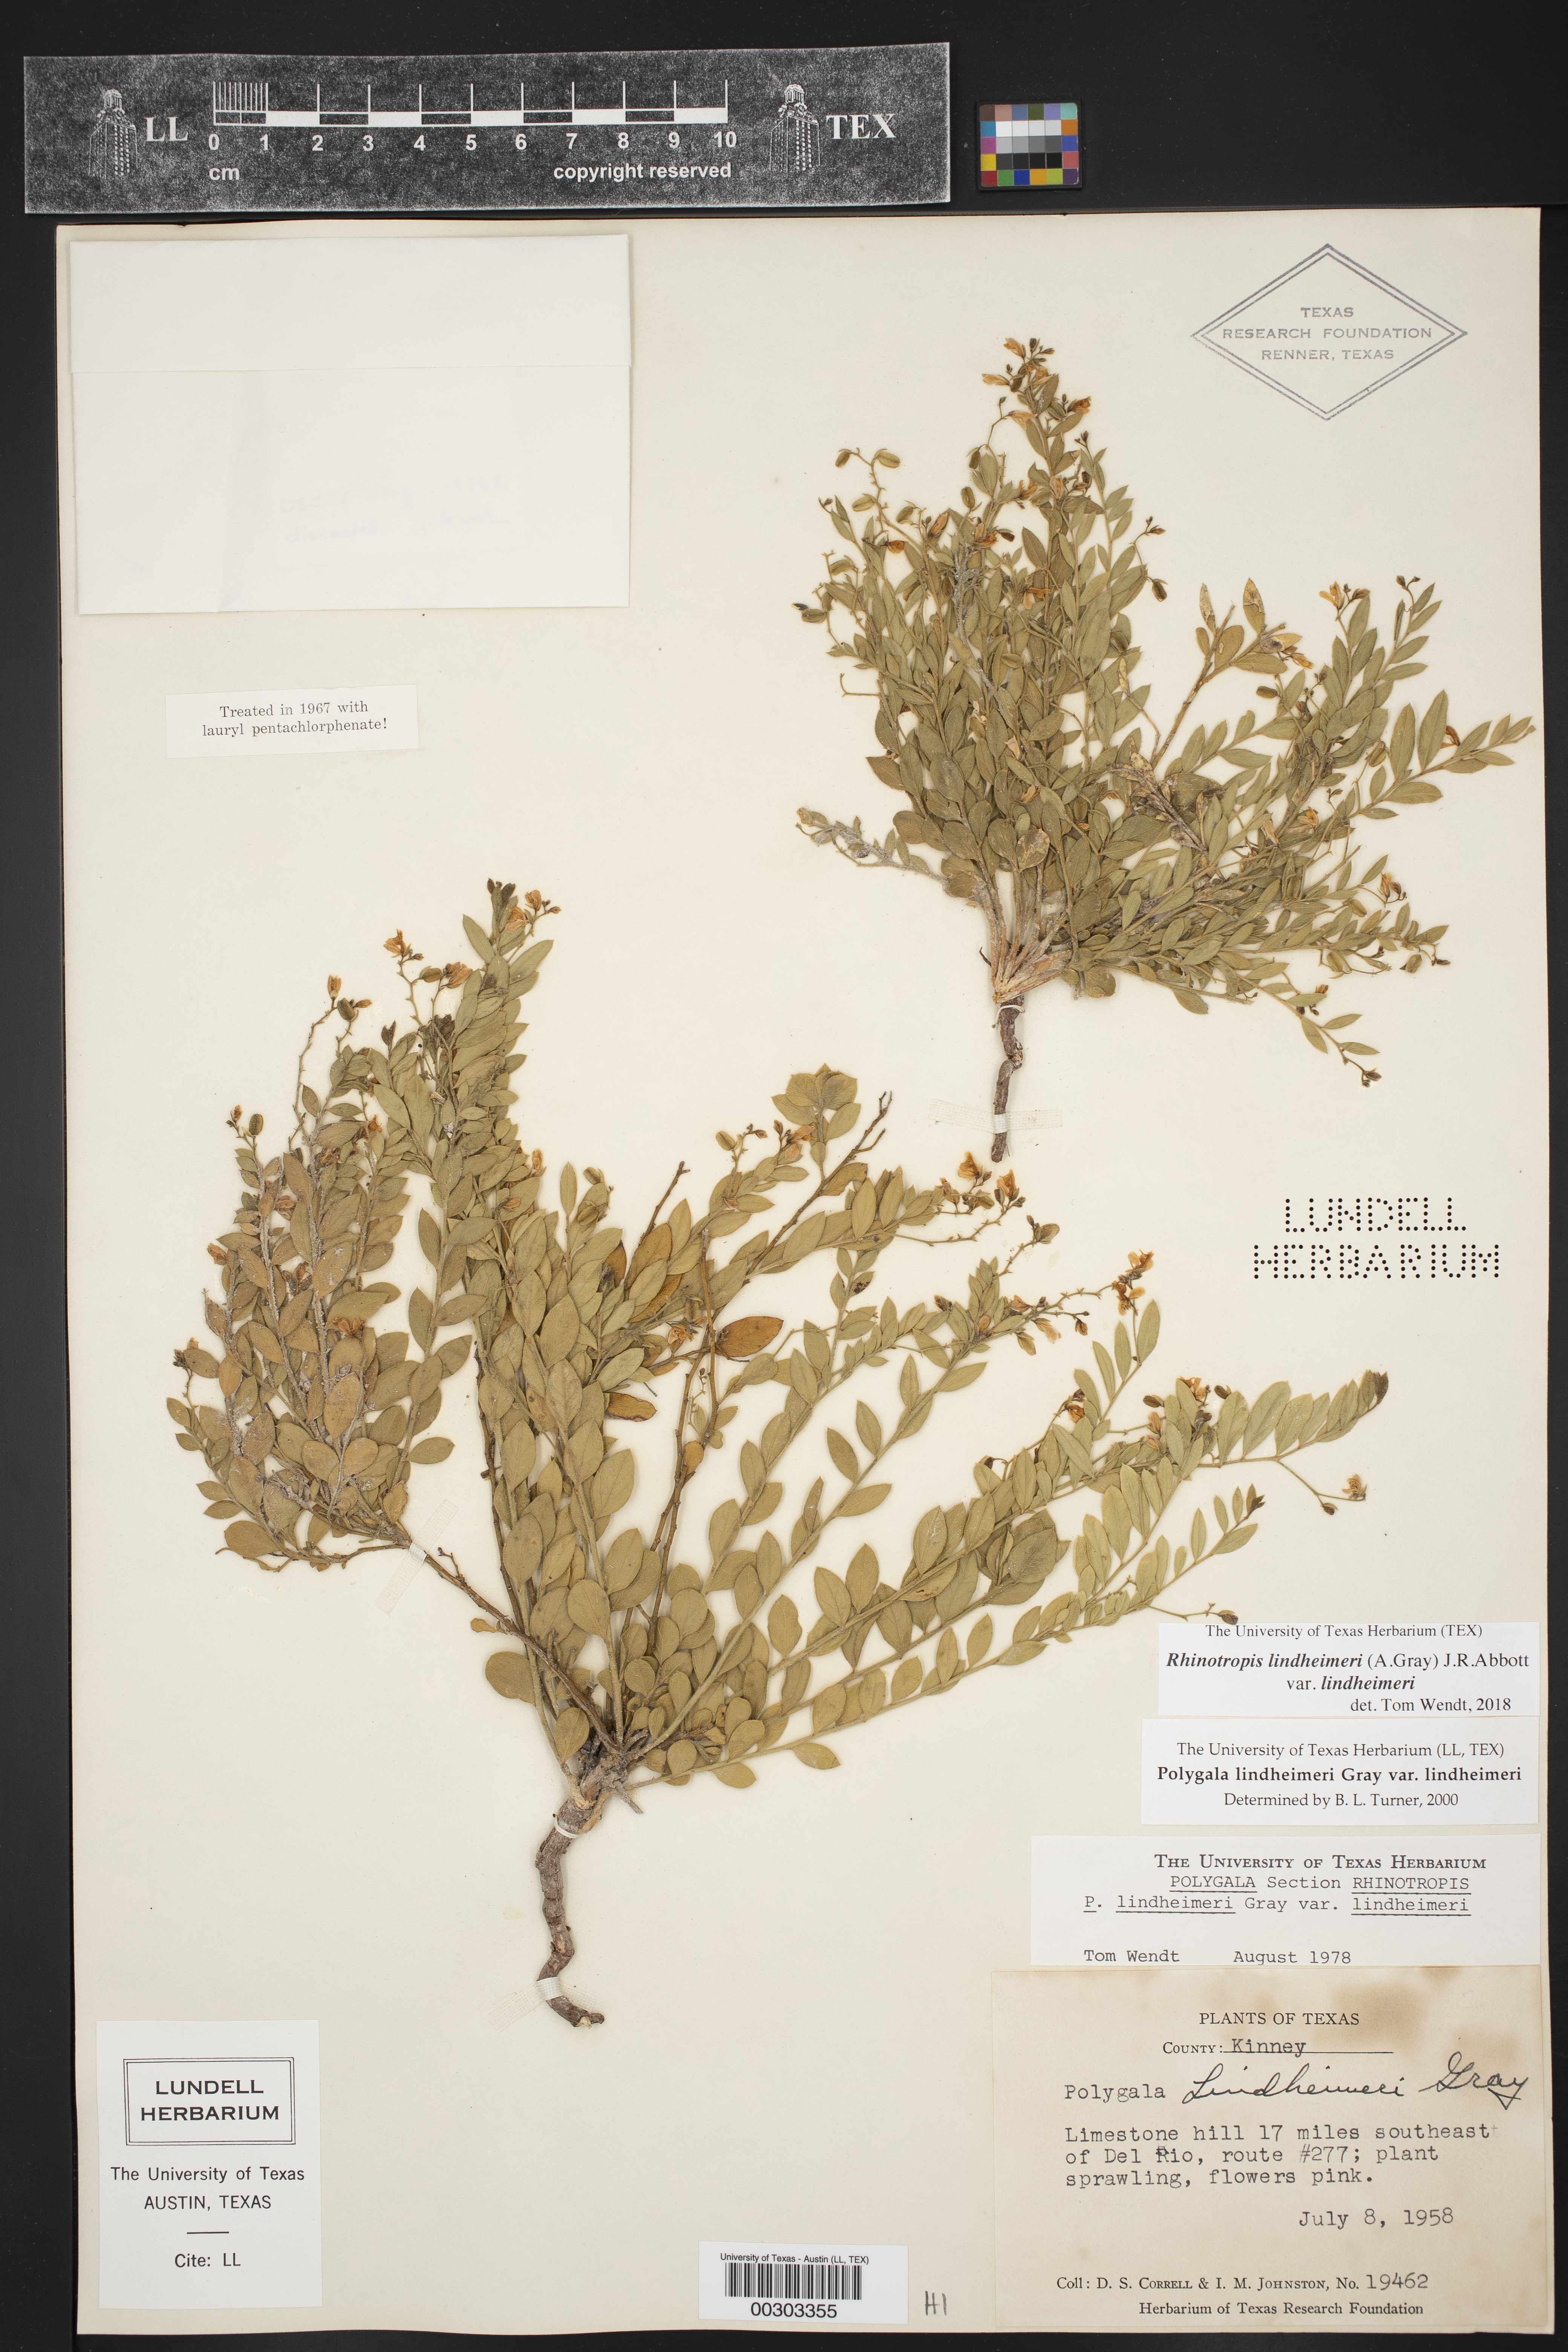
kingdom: Plantae
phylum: Tracheophyta
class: Magnoliopsida
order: Fabales
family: Polygalaceae
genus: Rhinotropis
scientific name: Rhinotropis lindheimeri
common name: Shrubby milkwort
